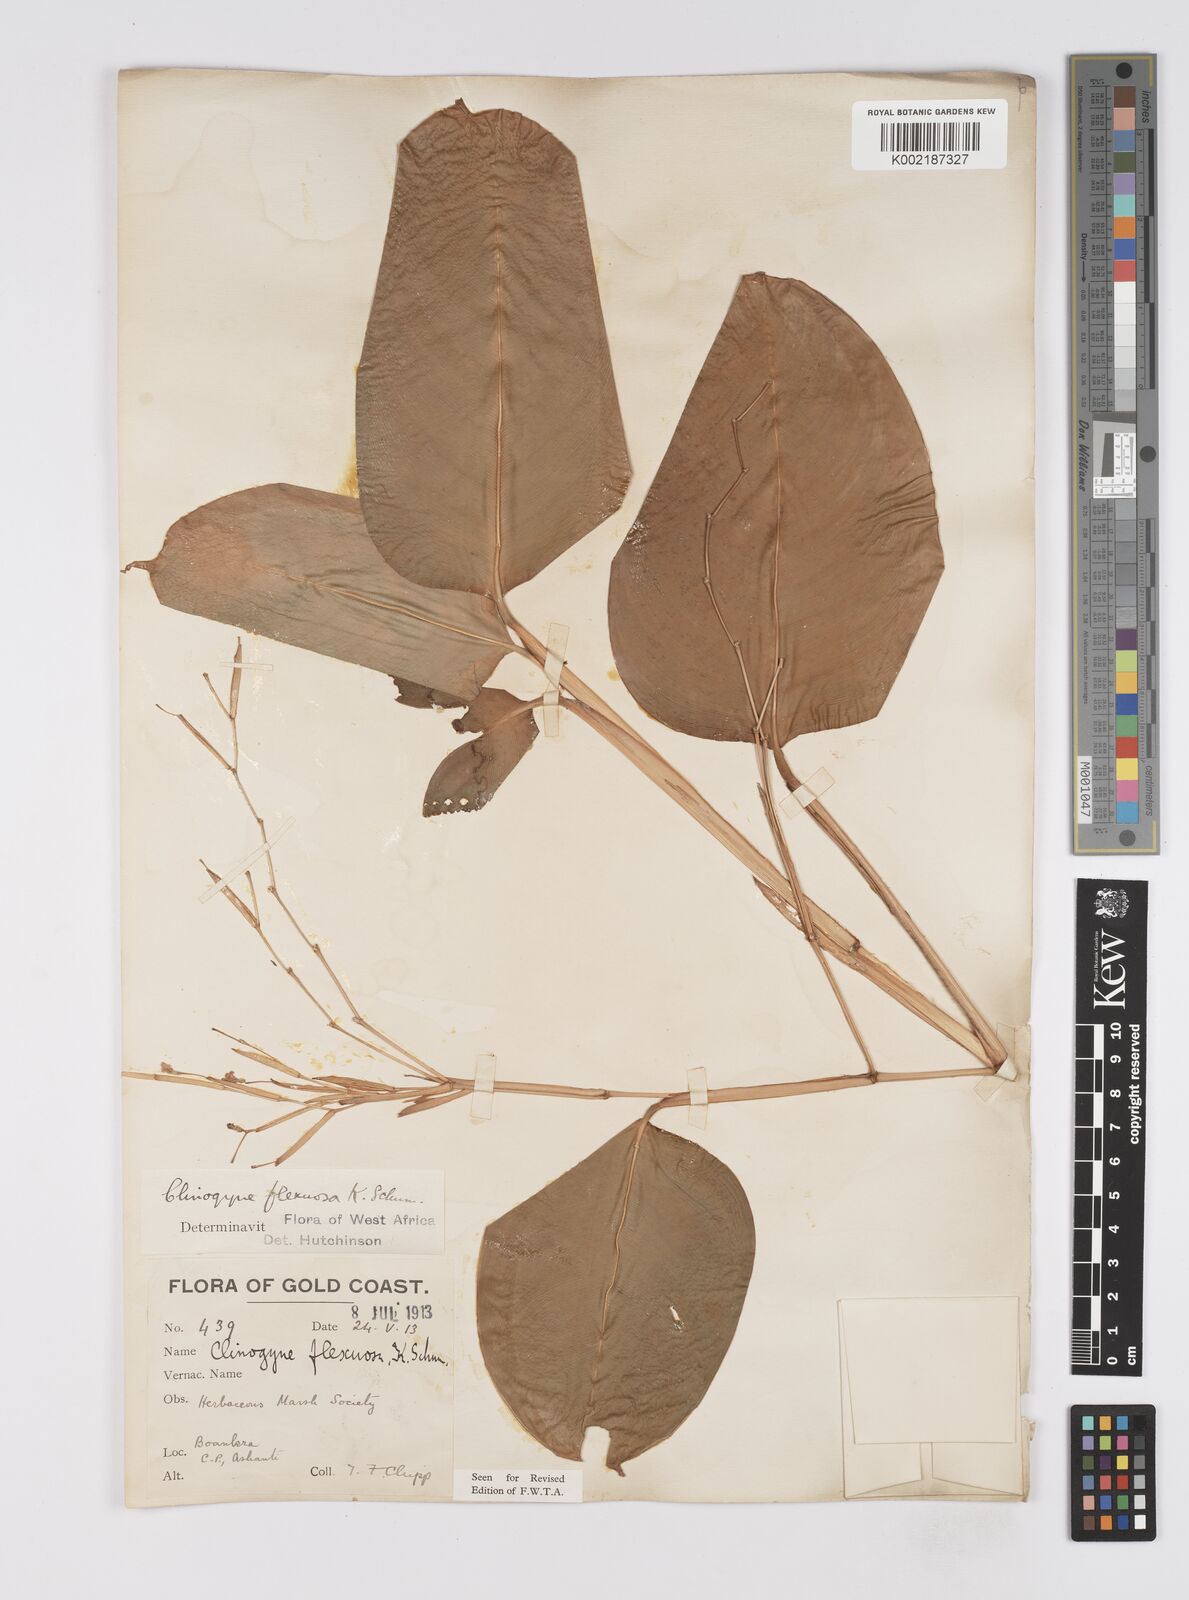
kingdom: Plantae
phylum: Tracheophyta
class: Liliopsida
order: Zingiberales
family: Marantaceae
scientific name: Marantaceae
